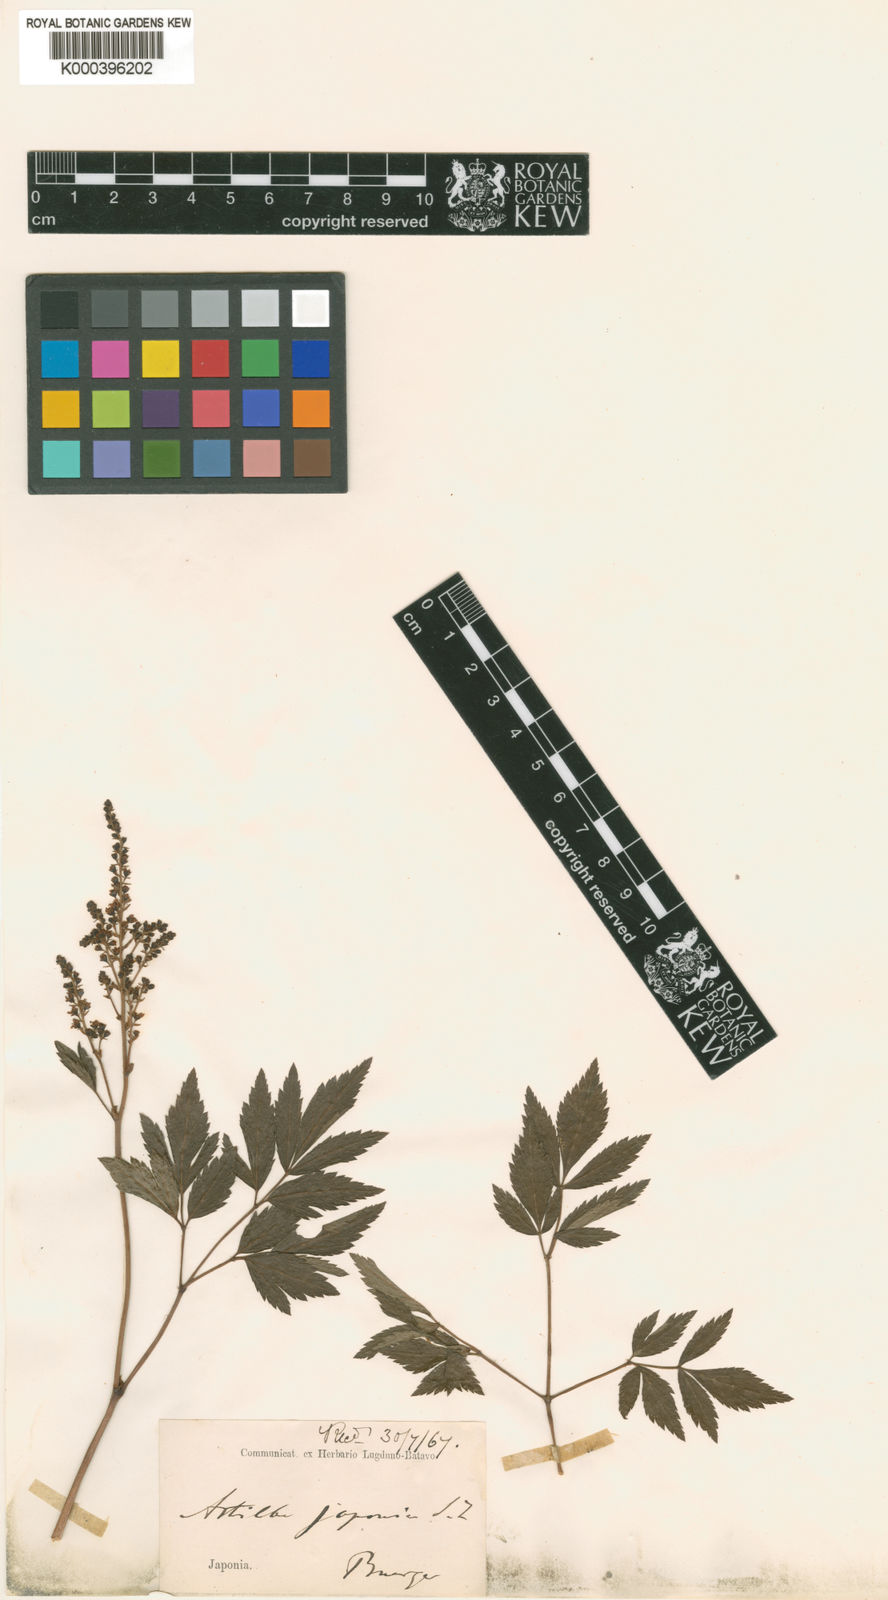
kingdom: Plantae
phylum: Tracheophyta
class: Magnoliopsida
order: Saxifragales
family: Saxifragaceae
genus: Astilbe
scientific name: Astilbe japonica
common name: False buck's-beard
